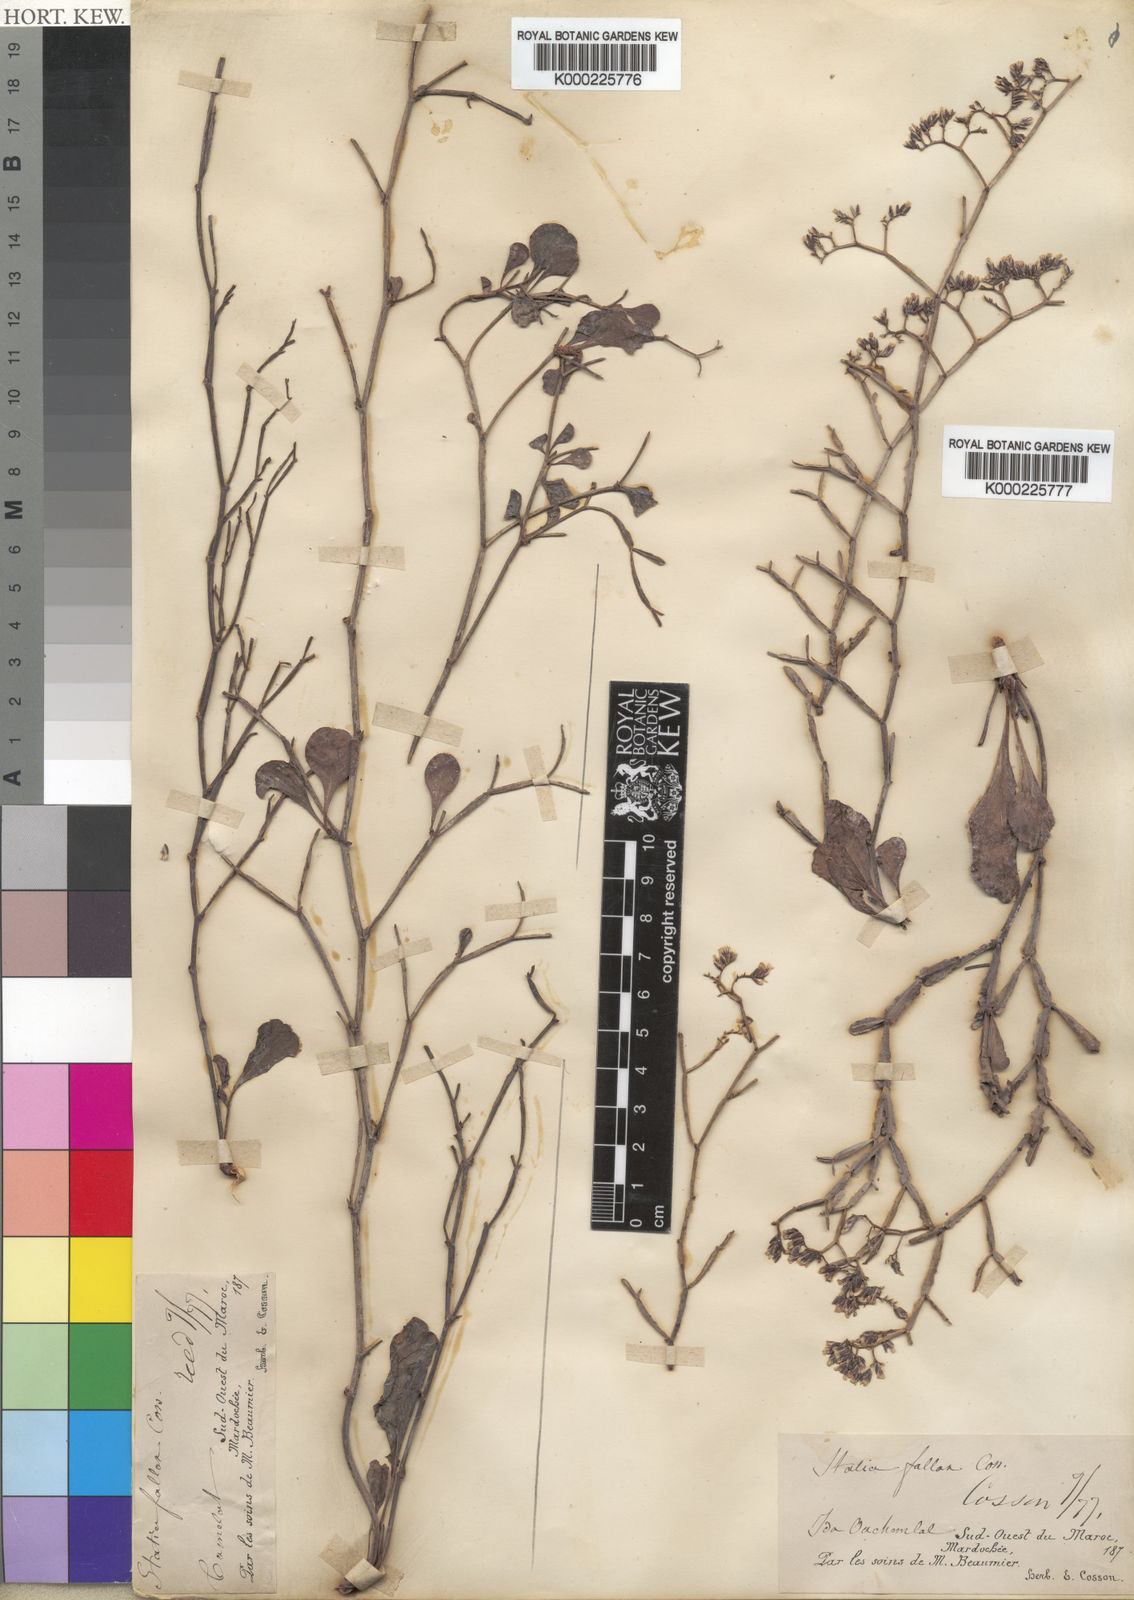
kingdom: Plantae
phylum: Tracheophyta
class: Magnoliopsida
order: Caryophyllales
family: Plumbaginaceae
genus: Limonium
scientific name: Limonium fallax
